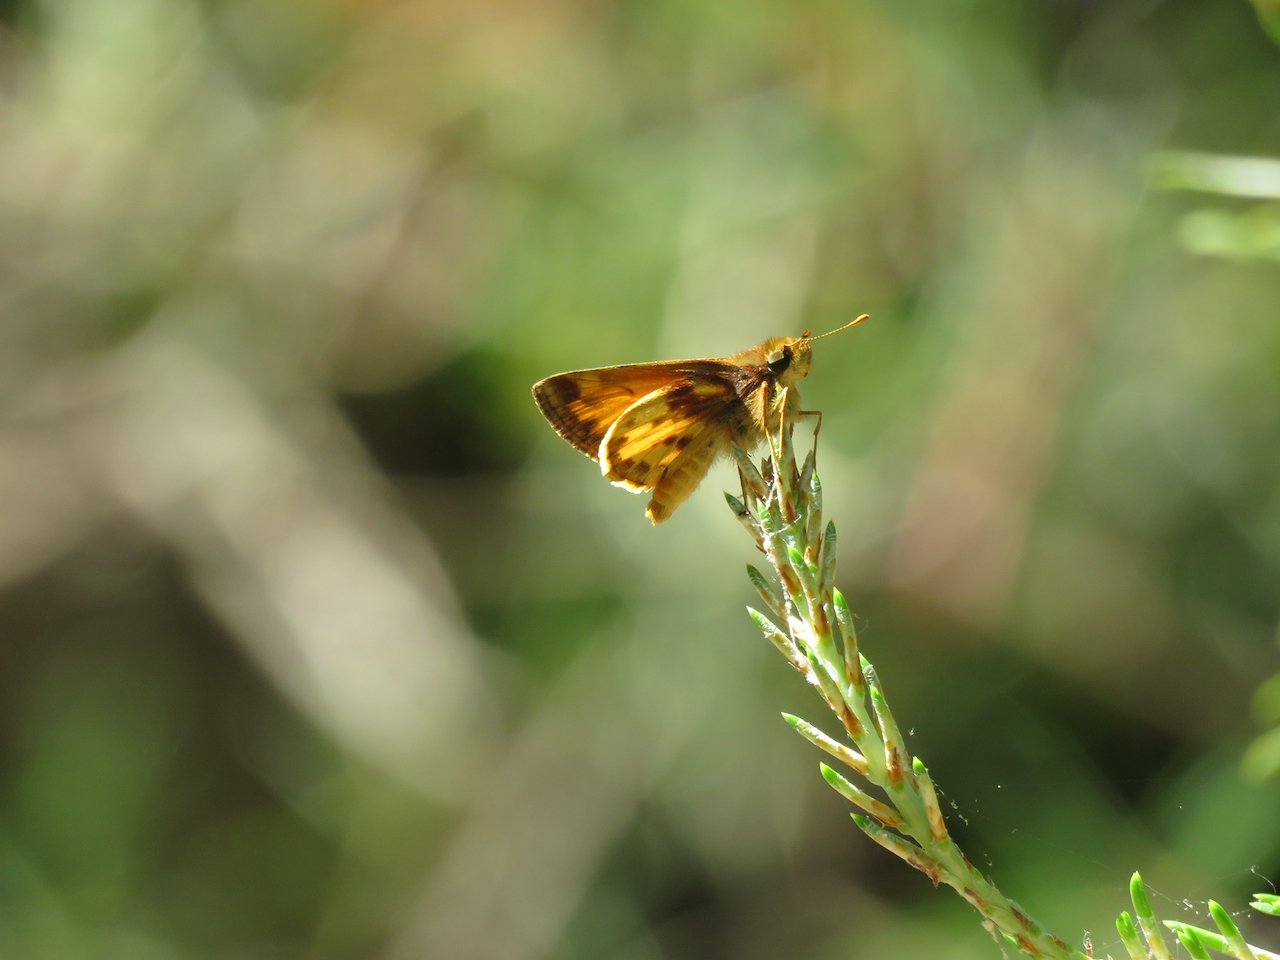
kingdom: Animalia
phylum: Arthropoda
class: Insecta
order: Lepidoptera
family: Hesperiidae
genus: Lon
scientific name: Lon zabulon
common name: Zabulon Skipper
